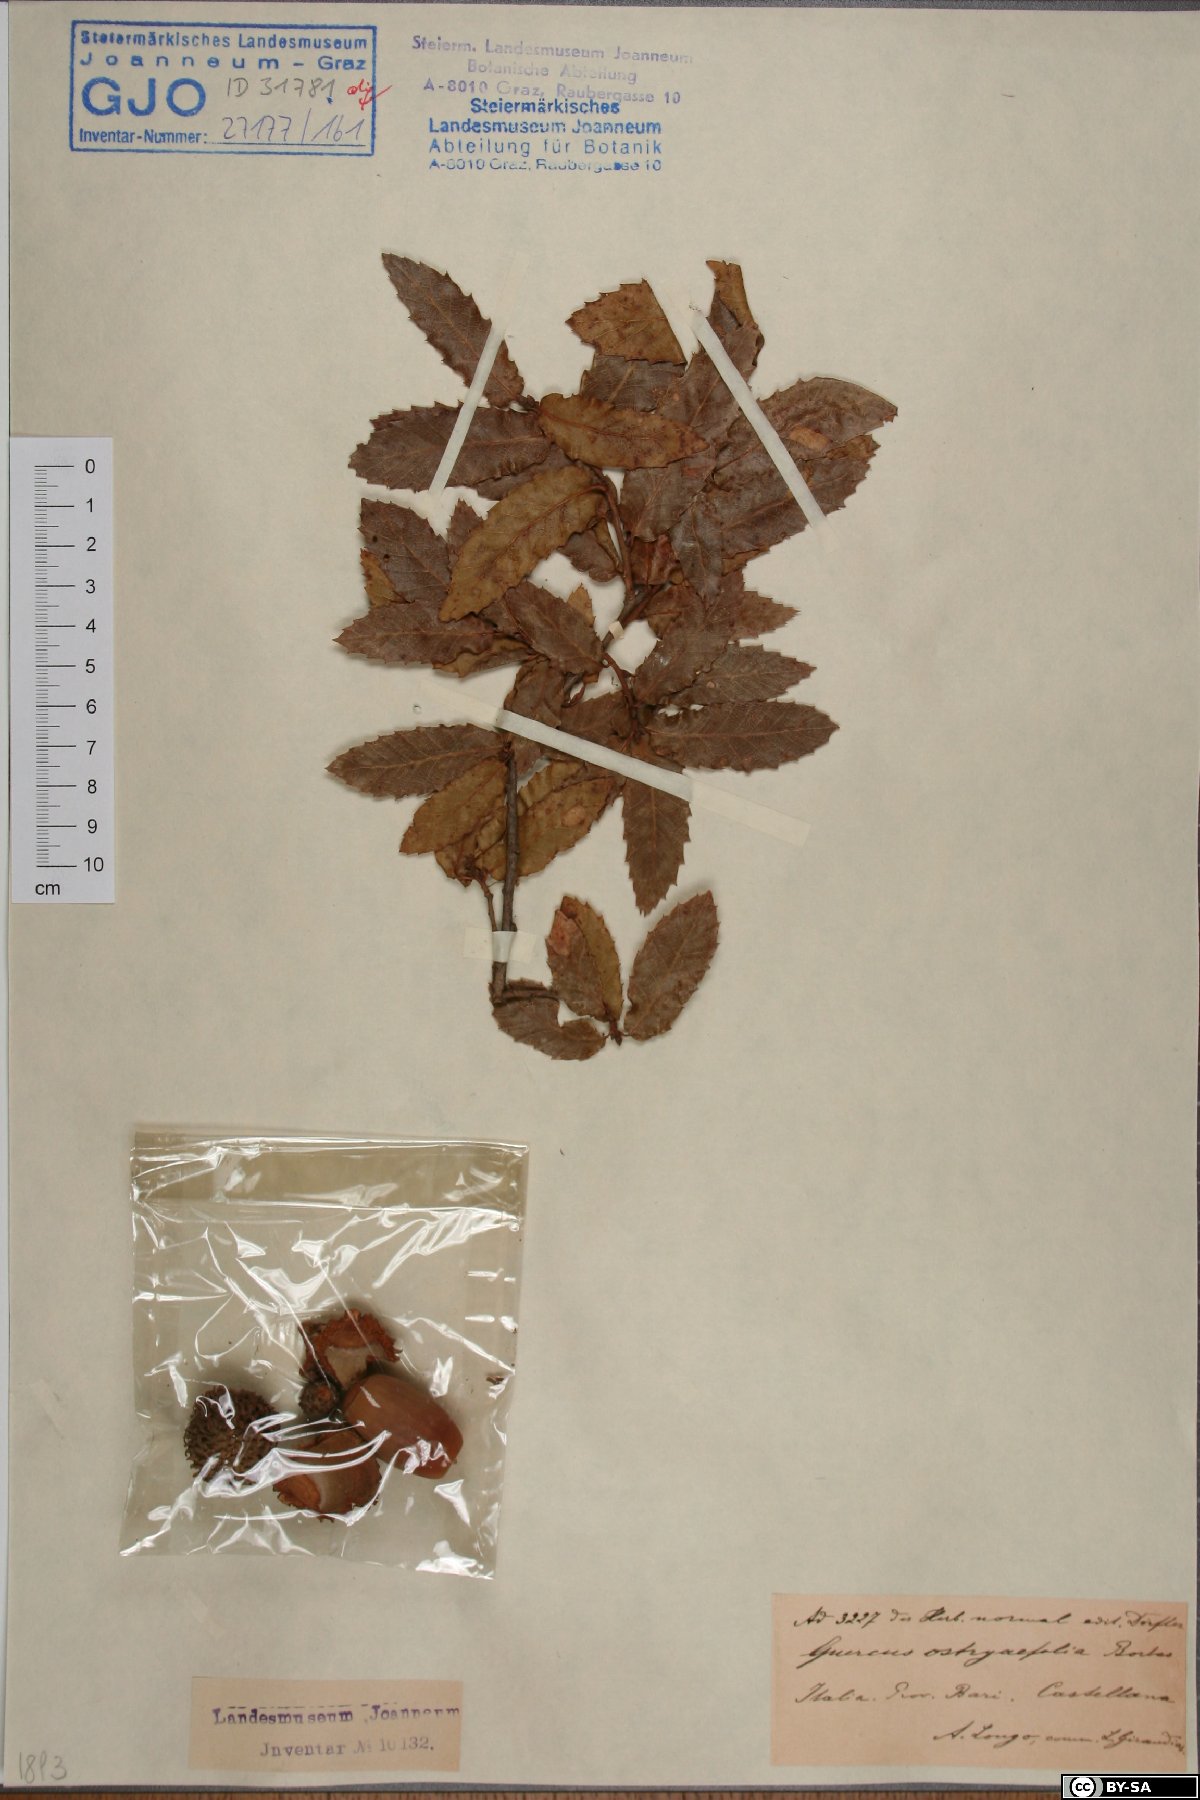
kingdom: Plantae
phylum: Tracheophyta
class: Magnoliopsida
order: Fagales
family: Fagaceae
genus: Quercus
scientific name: Quercus trojana
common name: Macedonian oak
